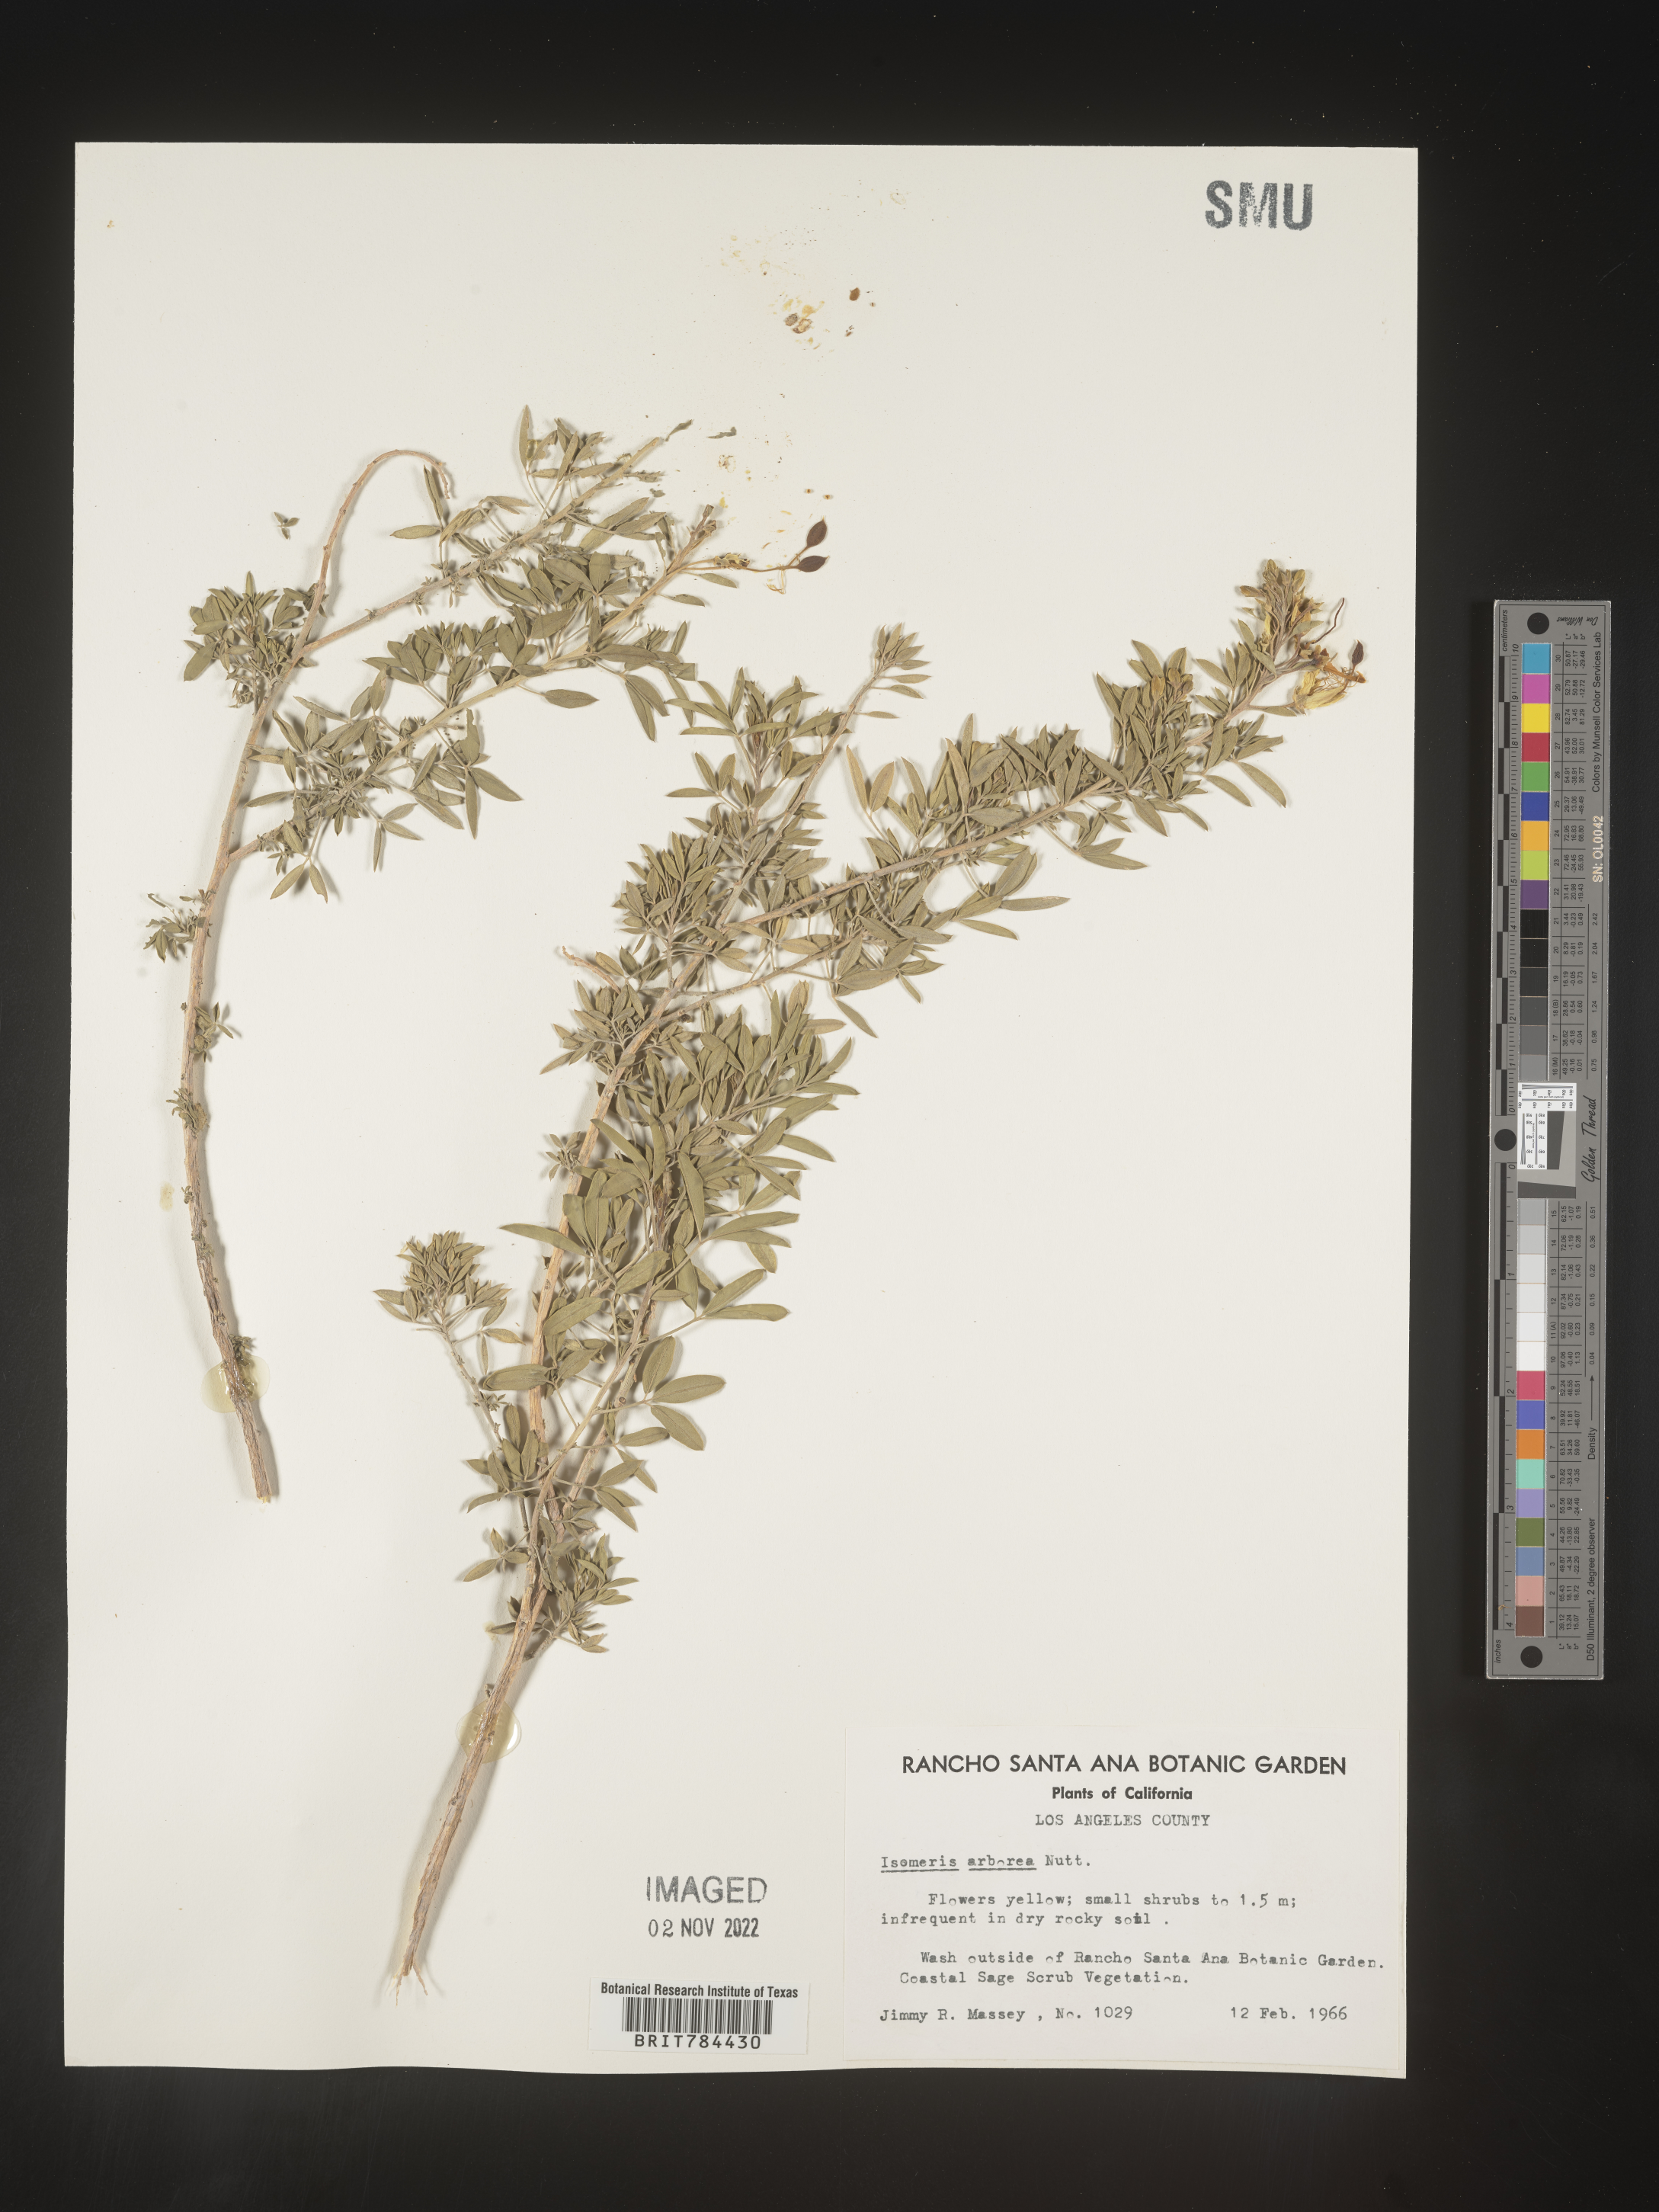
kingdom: Animalia
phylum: Arthropoda
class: Insecta
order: Hymenoptera
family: Ichneumonidae
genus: Isomeris
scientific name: Isomeris
